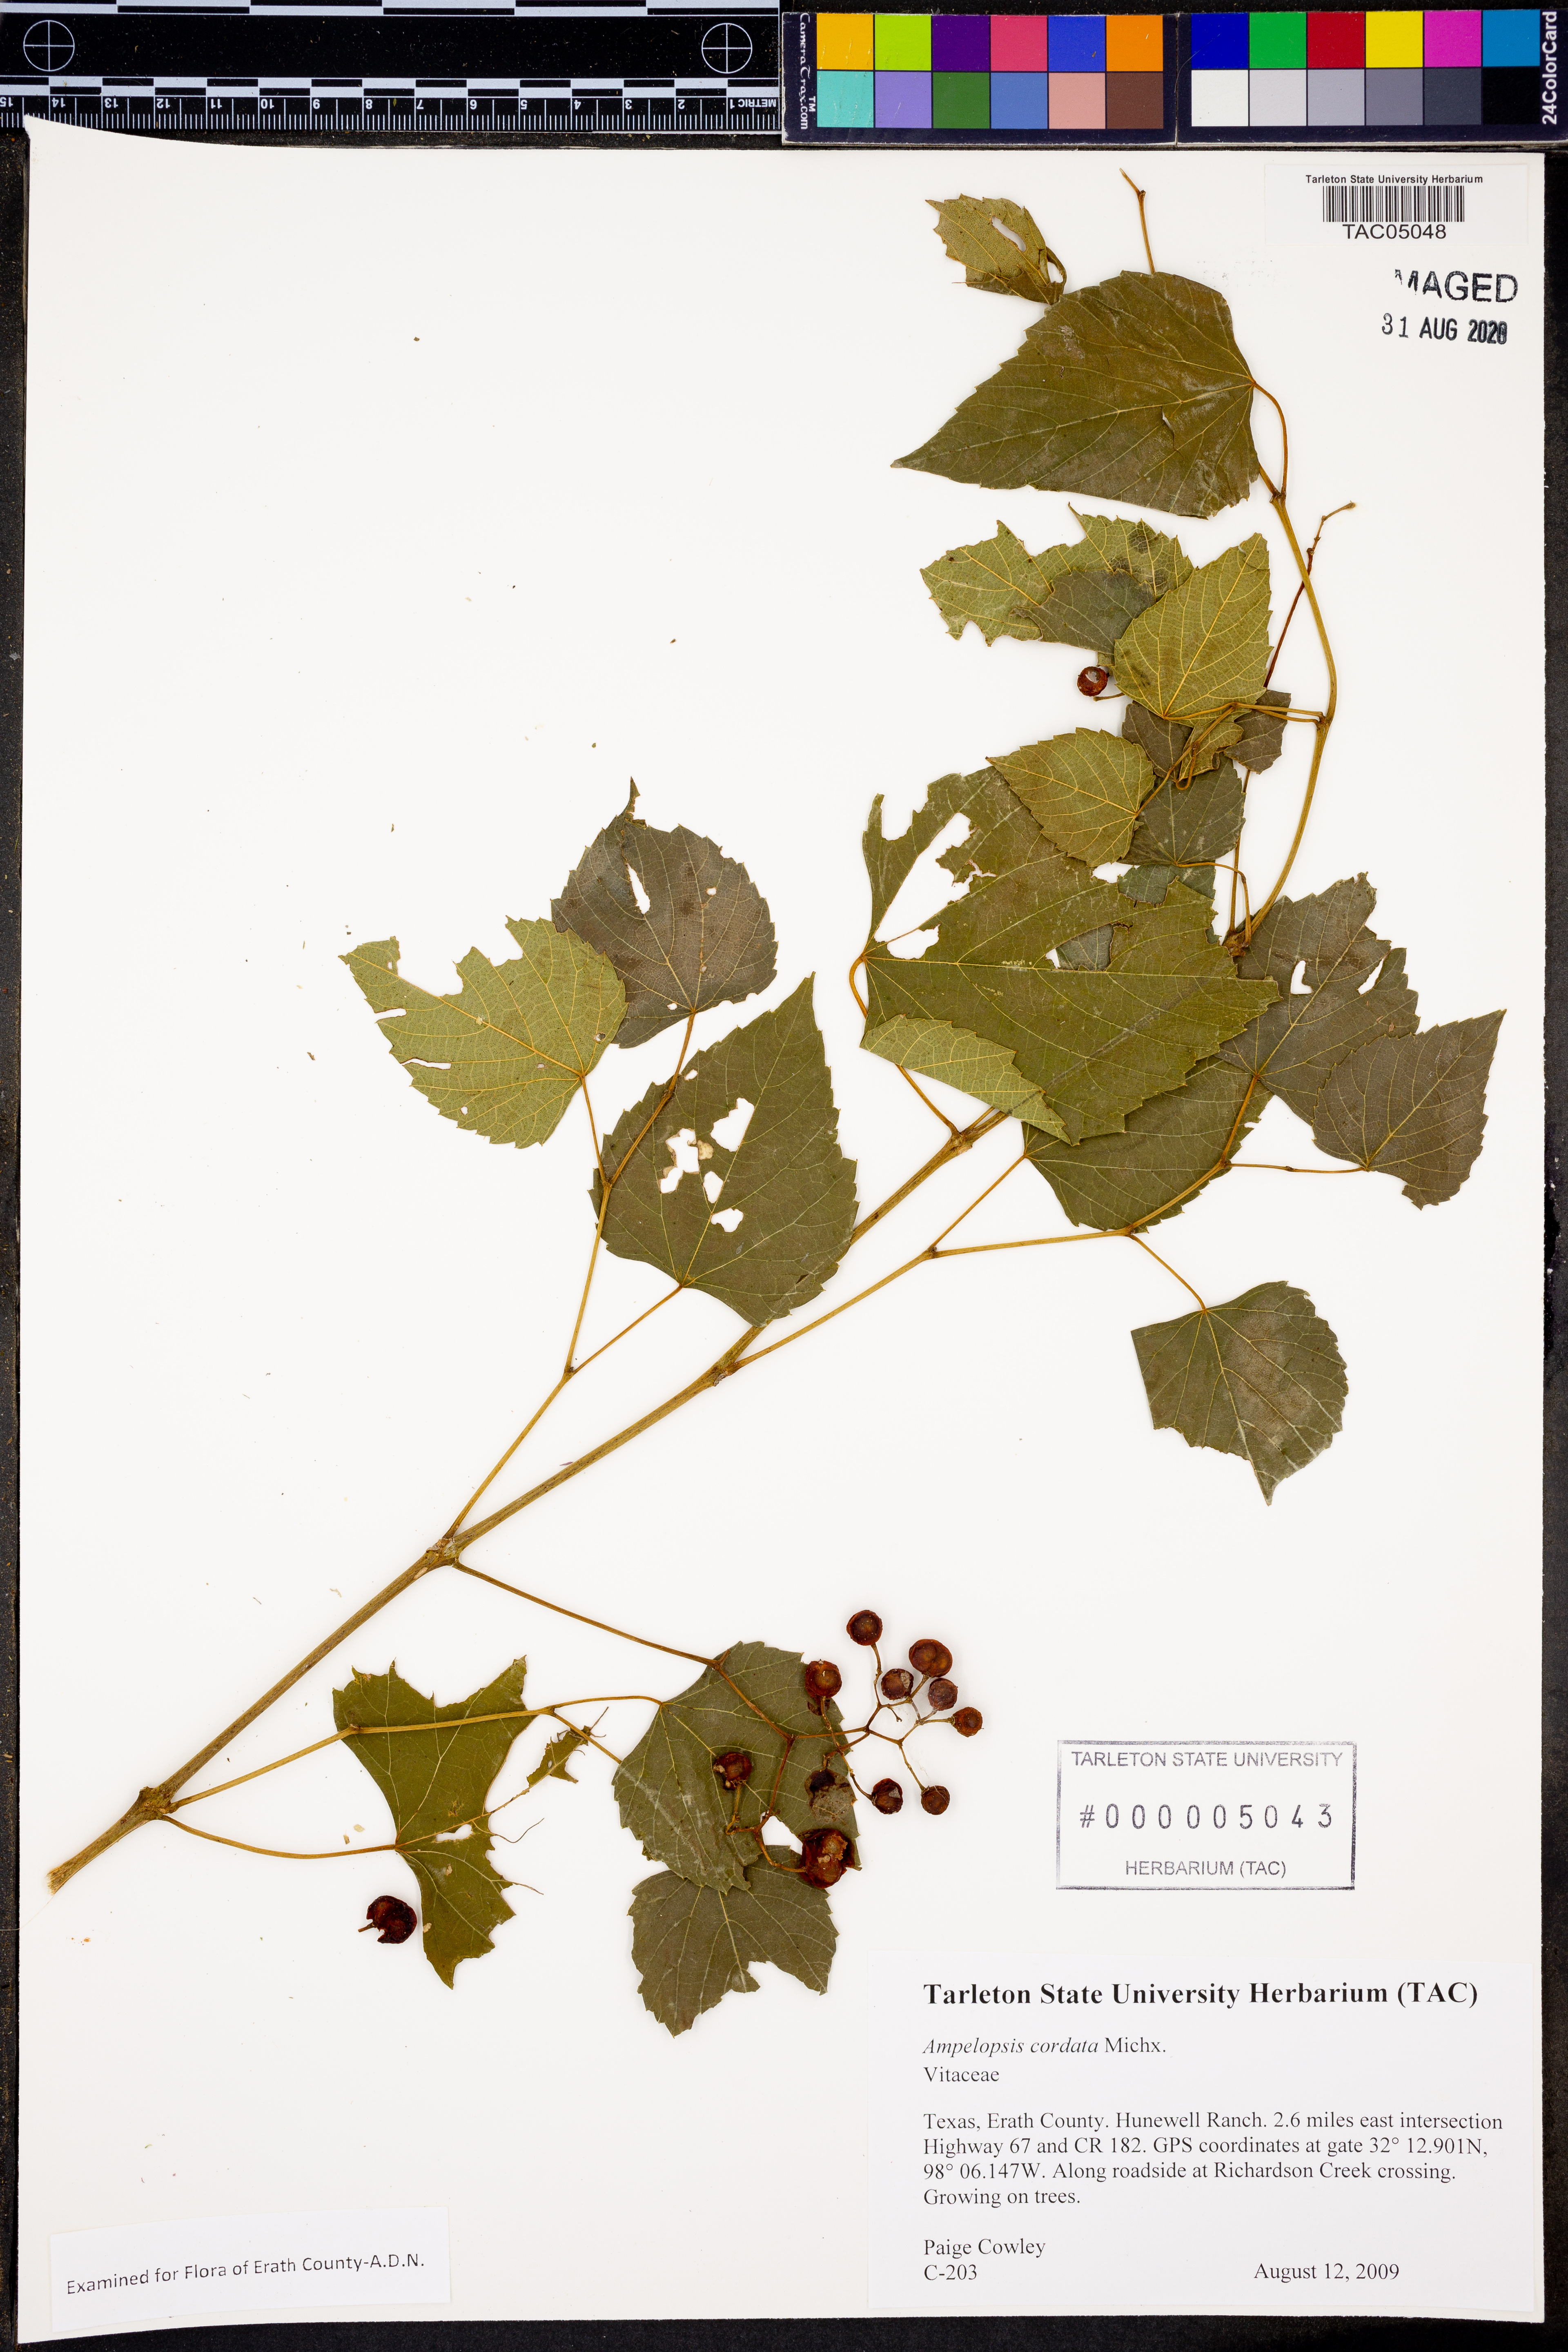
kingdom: Plantae
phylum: Tracheophyta
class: Magnoliopsida
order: Vitales
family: Vitaceae
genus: Ampelopsis
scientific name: Ampelopsis cordata
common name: Heart-leaf ampelopsis
